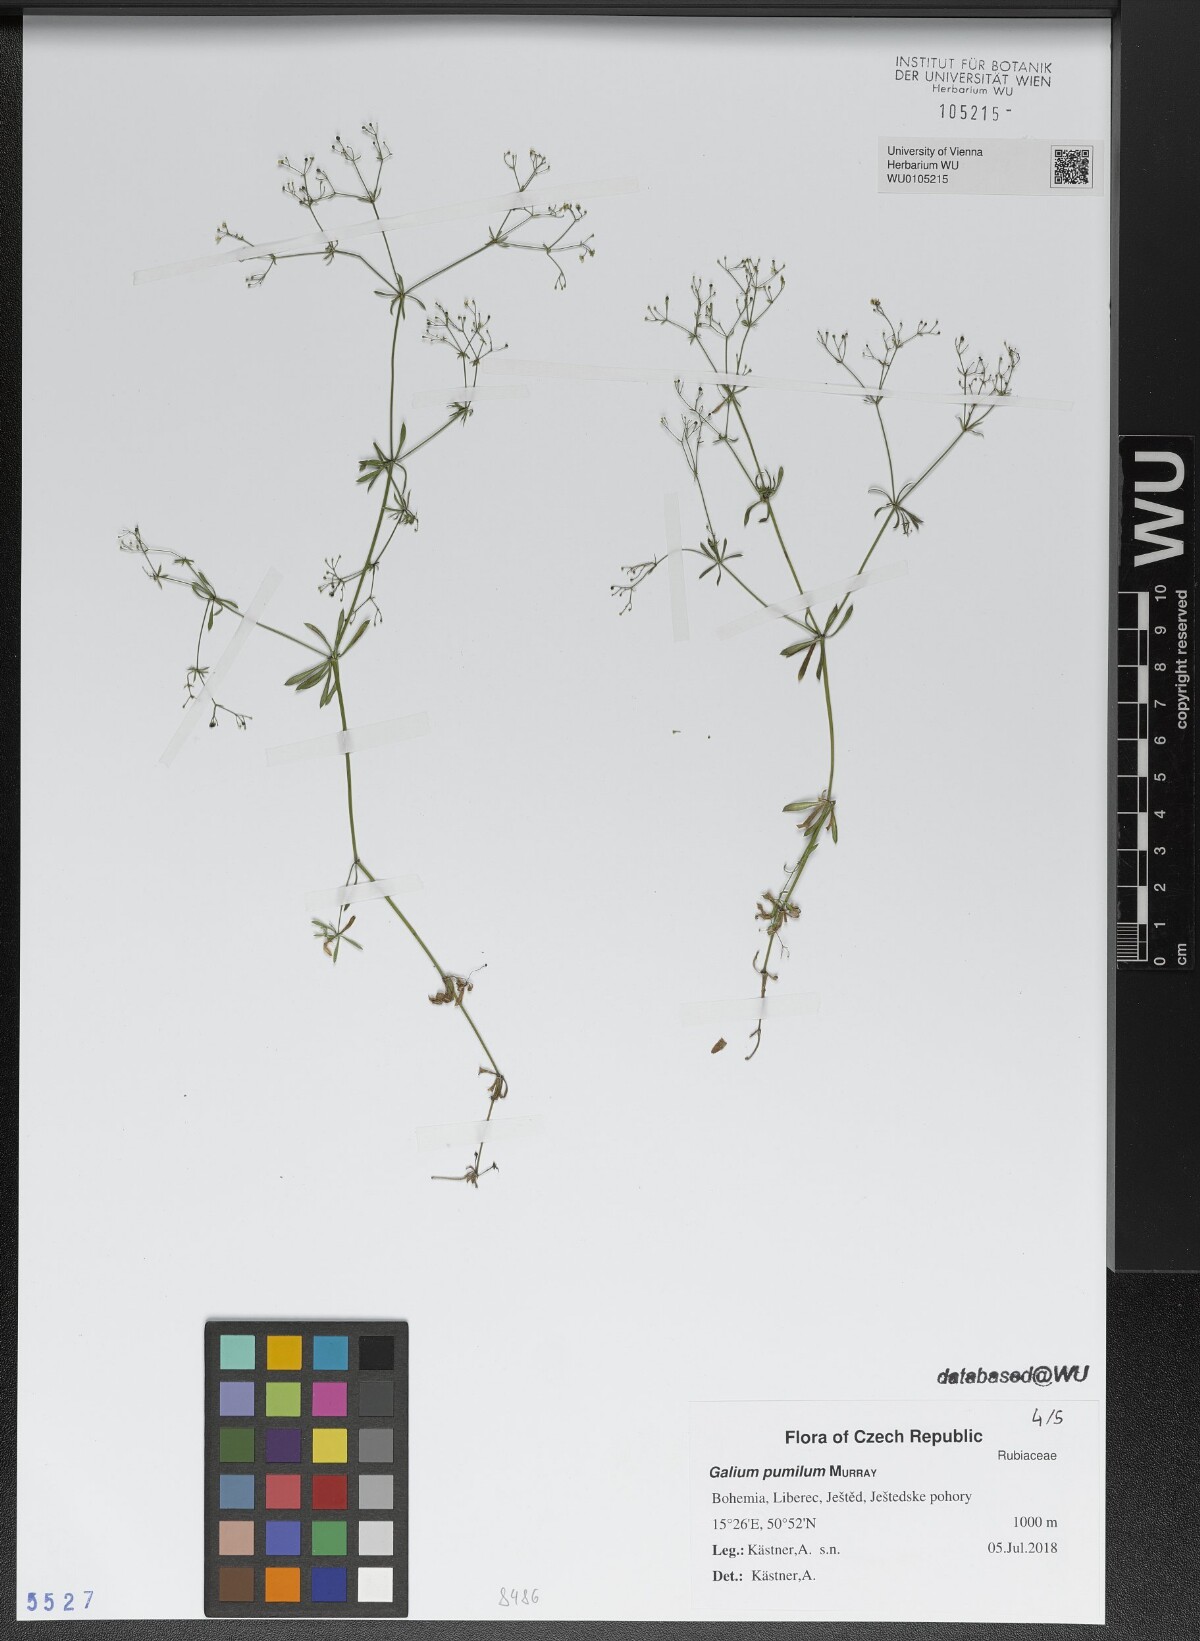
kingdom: Plantae
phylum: Tracheophyta
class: Magnoliopsida
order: Gentianales
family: Rubiaceae
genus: Galium
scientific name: Galium pumilum
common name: Slender bedstraw
